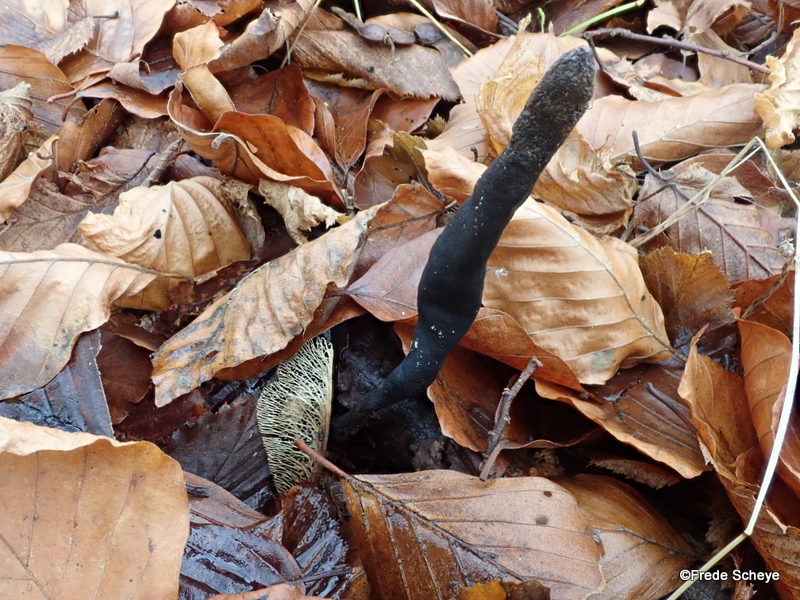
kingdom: Fungi
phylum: Ascomycota
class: Sordariomycetes
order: Xylariales
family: Xylariaceae
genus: Xylaria
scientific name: Xylaria longipes
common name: slank stødsvamp
